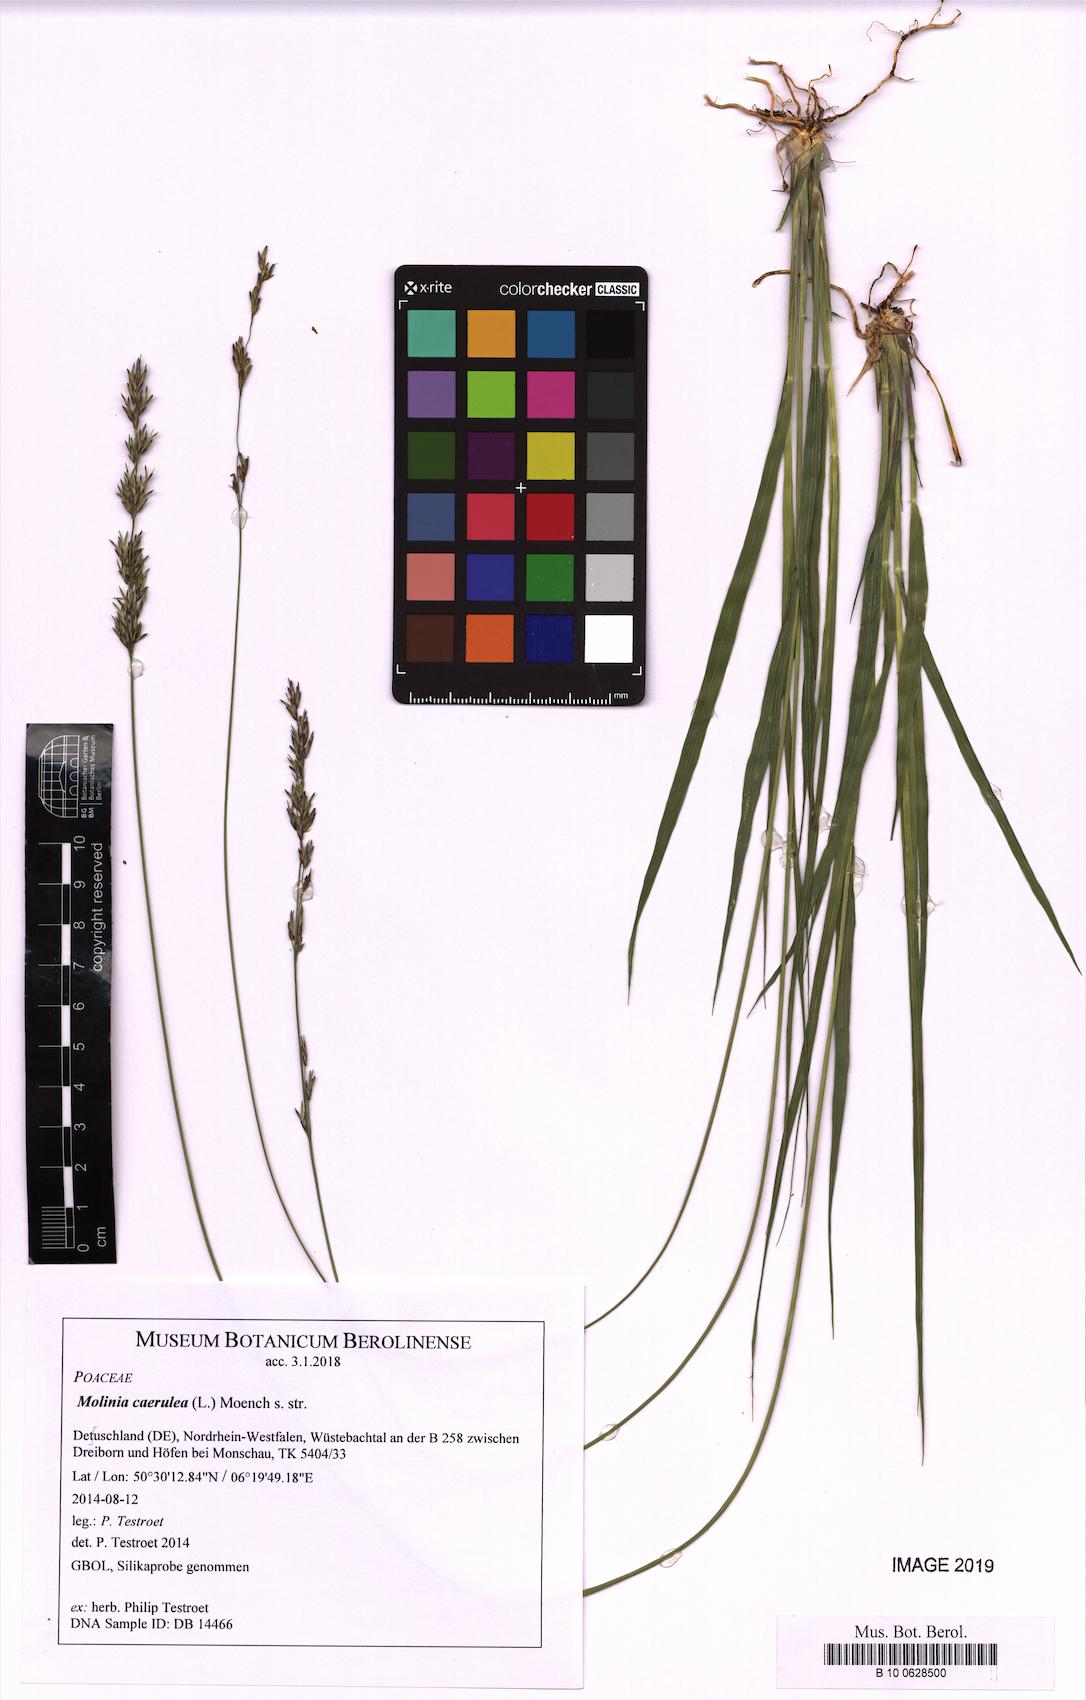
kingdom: Plantae
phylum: Tracheophyta
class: Liliopsida
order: Poales
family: Poaceae
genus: Molinia
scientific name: Molinia caerulea
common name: Purple moor-grass
